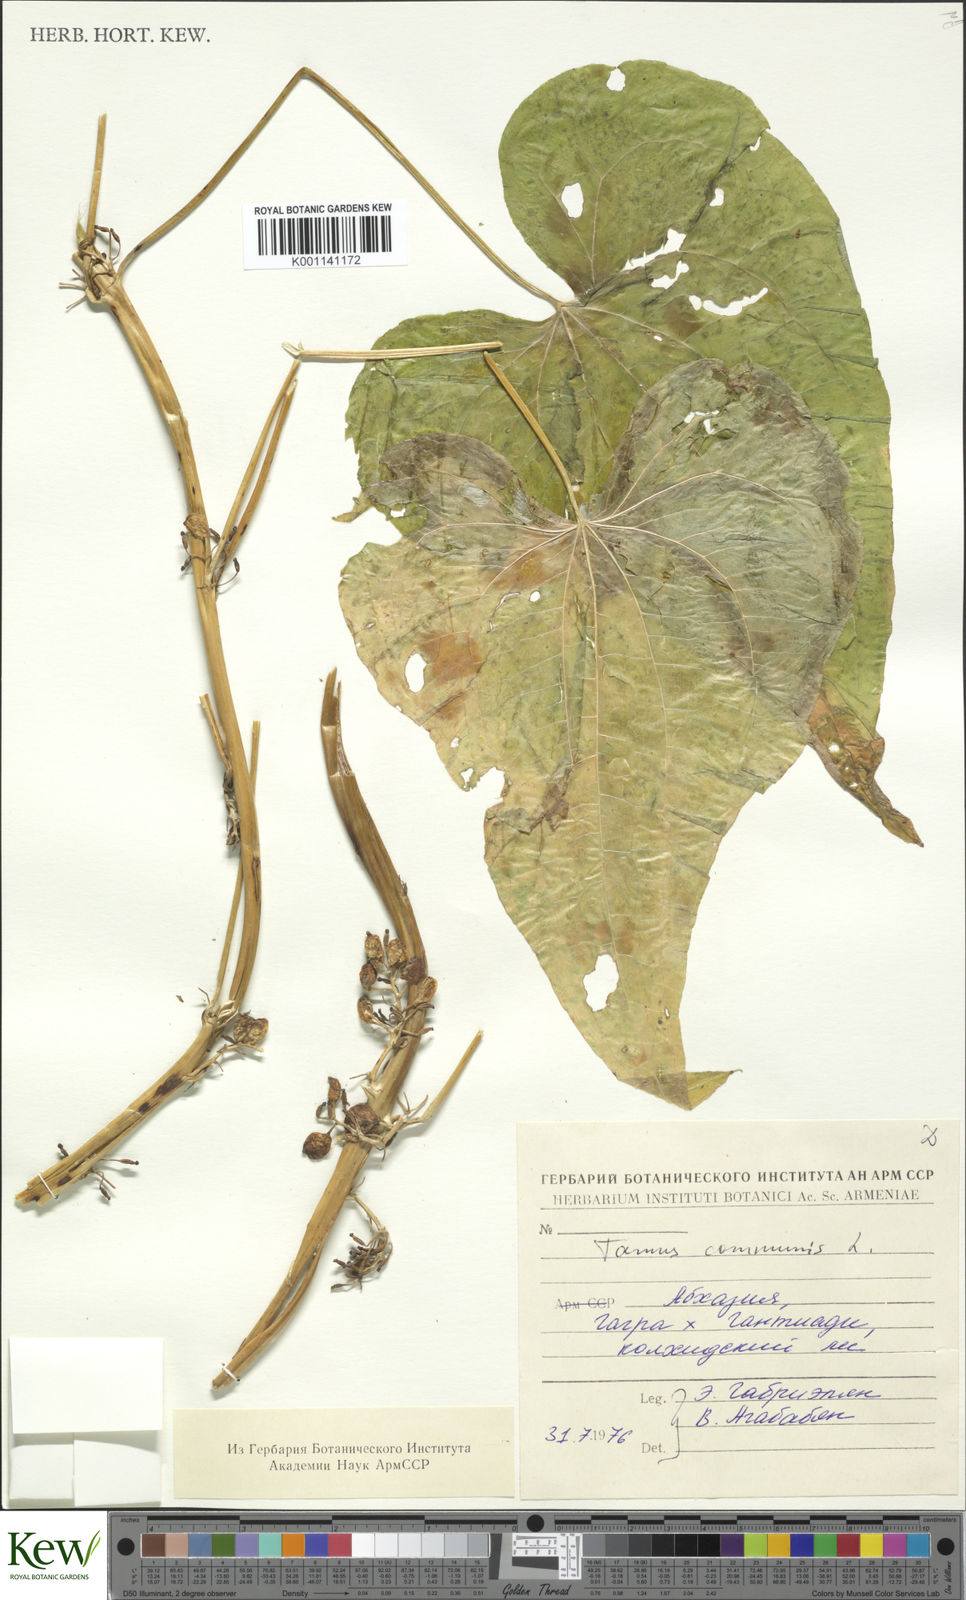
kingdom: Plantae
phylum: Tracheophyta
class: Liliopsida
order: Dioscoreales
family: Dioscoreaceae
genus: Dioscorea
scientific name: Dioscorea communis
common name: Black-bindweed
